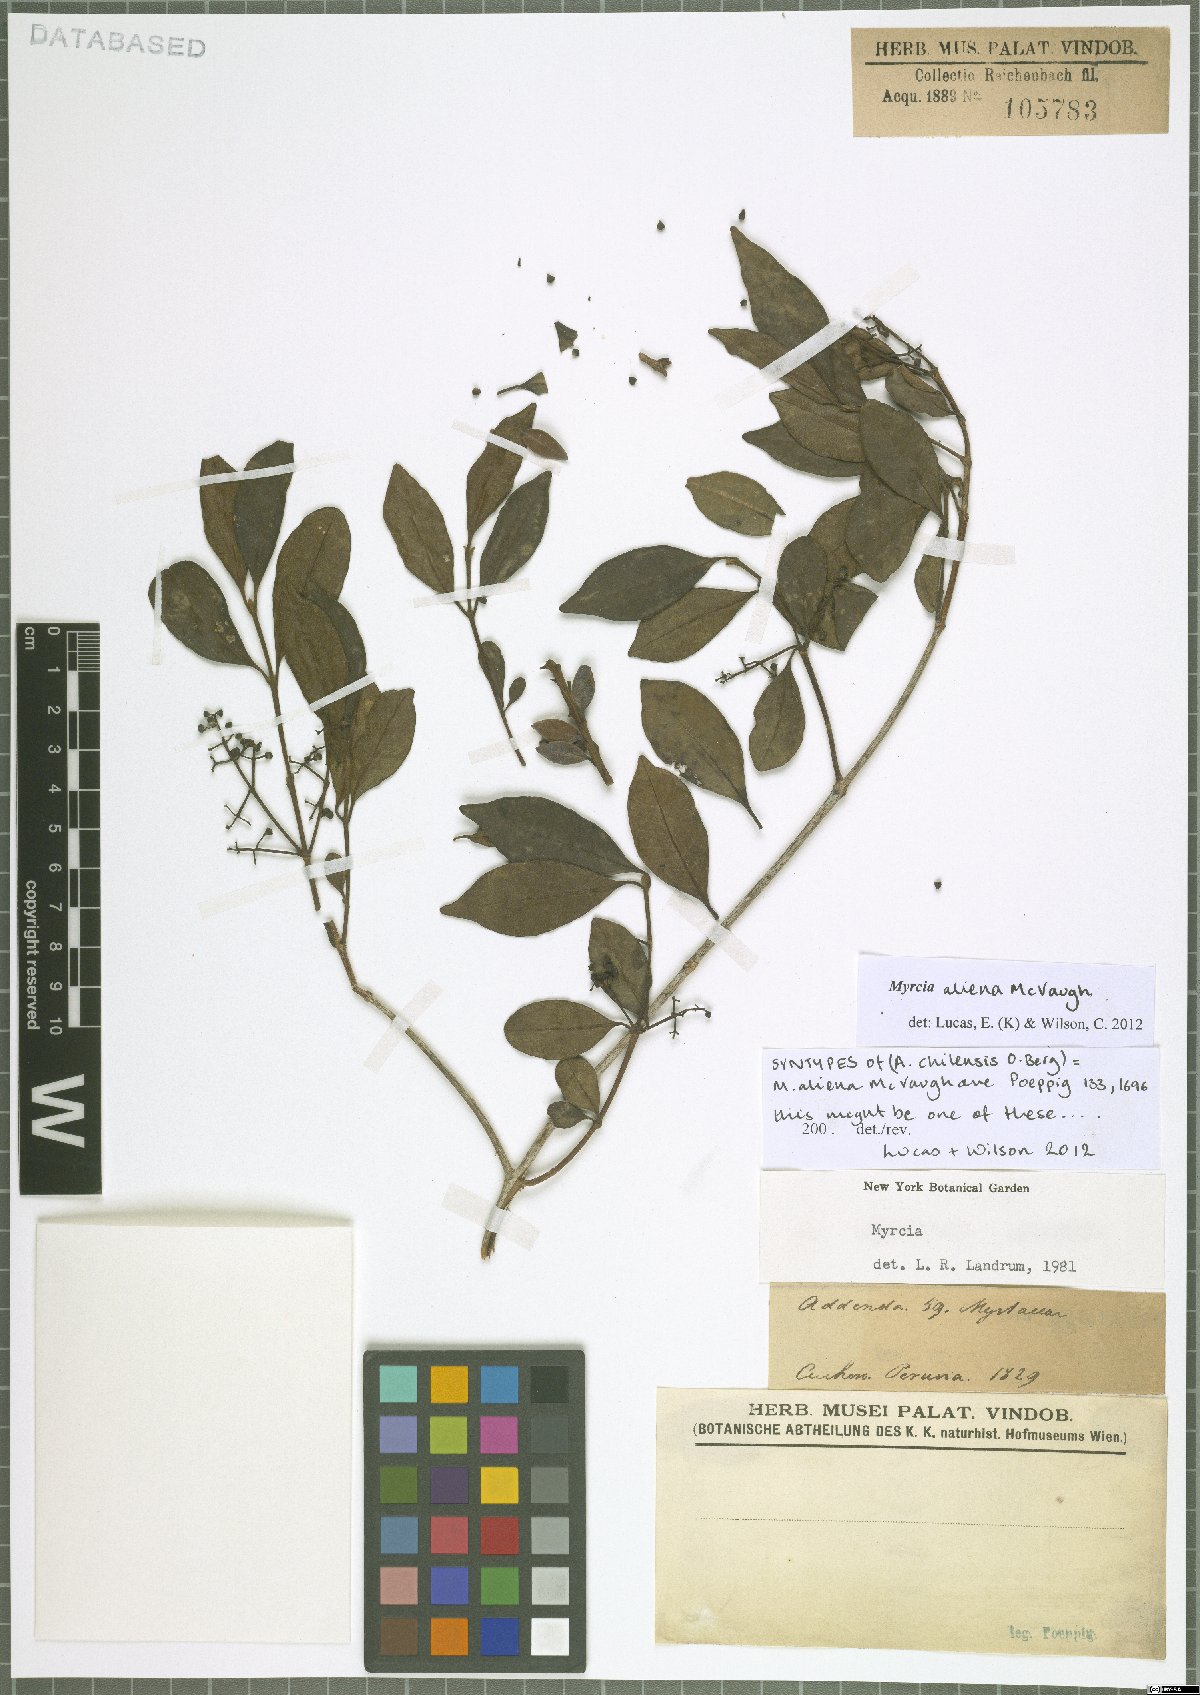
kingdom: Plantae
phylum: Tracheophyta
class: Magnoliopsida
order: Myrtales
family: Myrtaceae
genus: Myrcia
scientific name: Myrcia aliena
